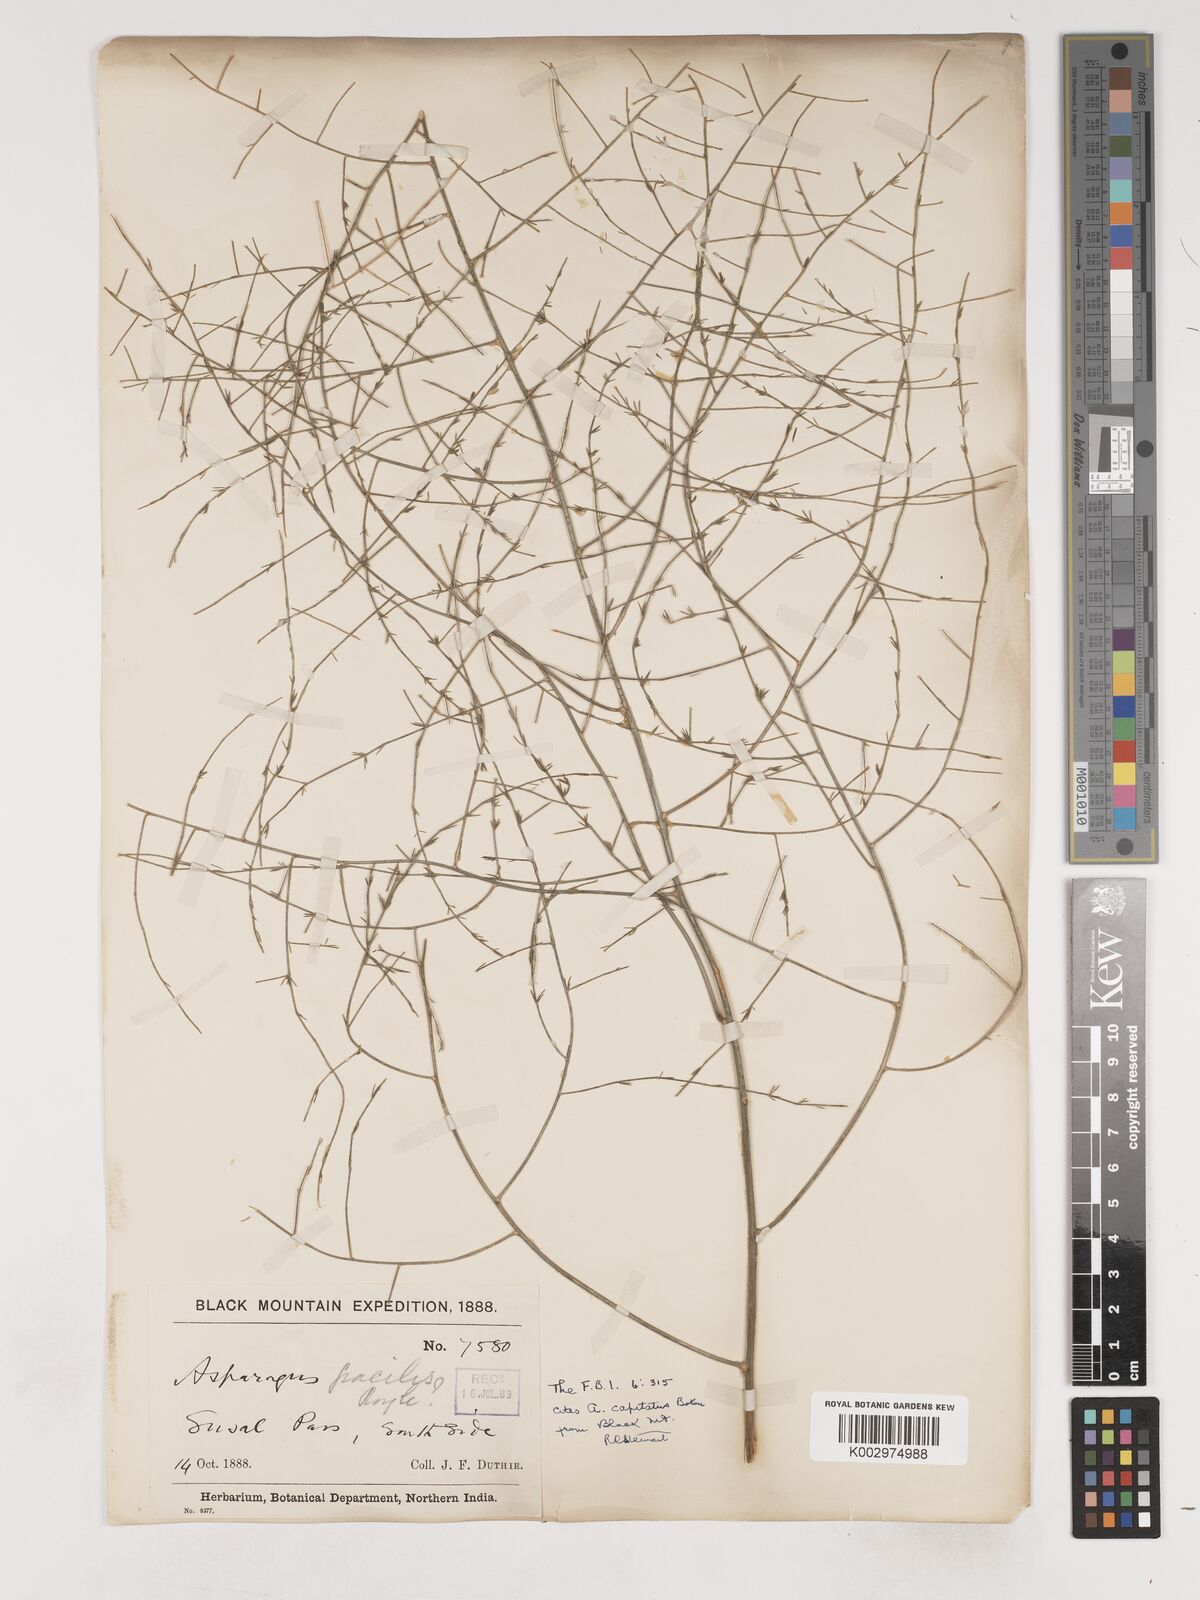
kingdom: Plantae
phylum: Tracheophyta
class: Liliopsida
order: Asparagales
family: Asparagaceae
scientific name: Asparagaceae
